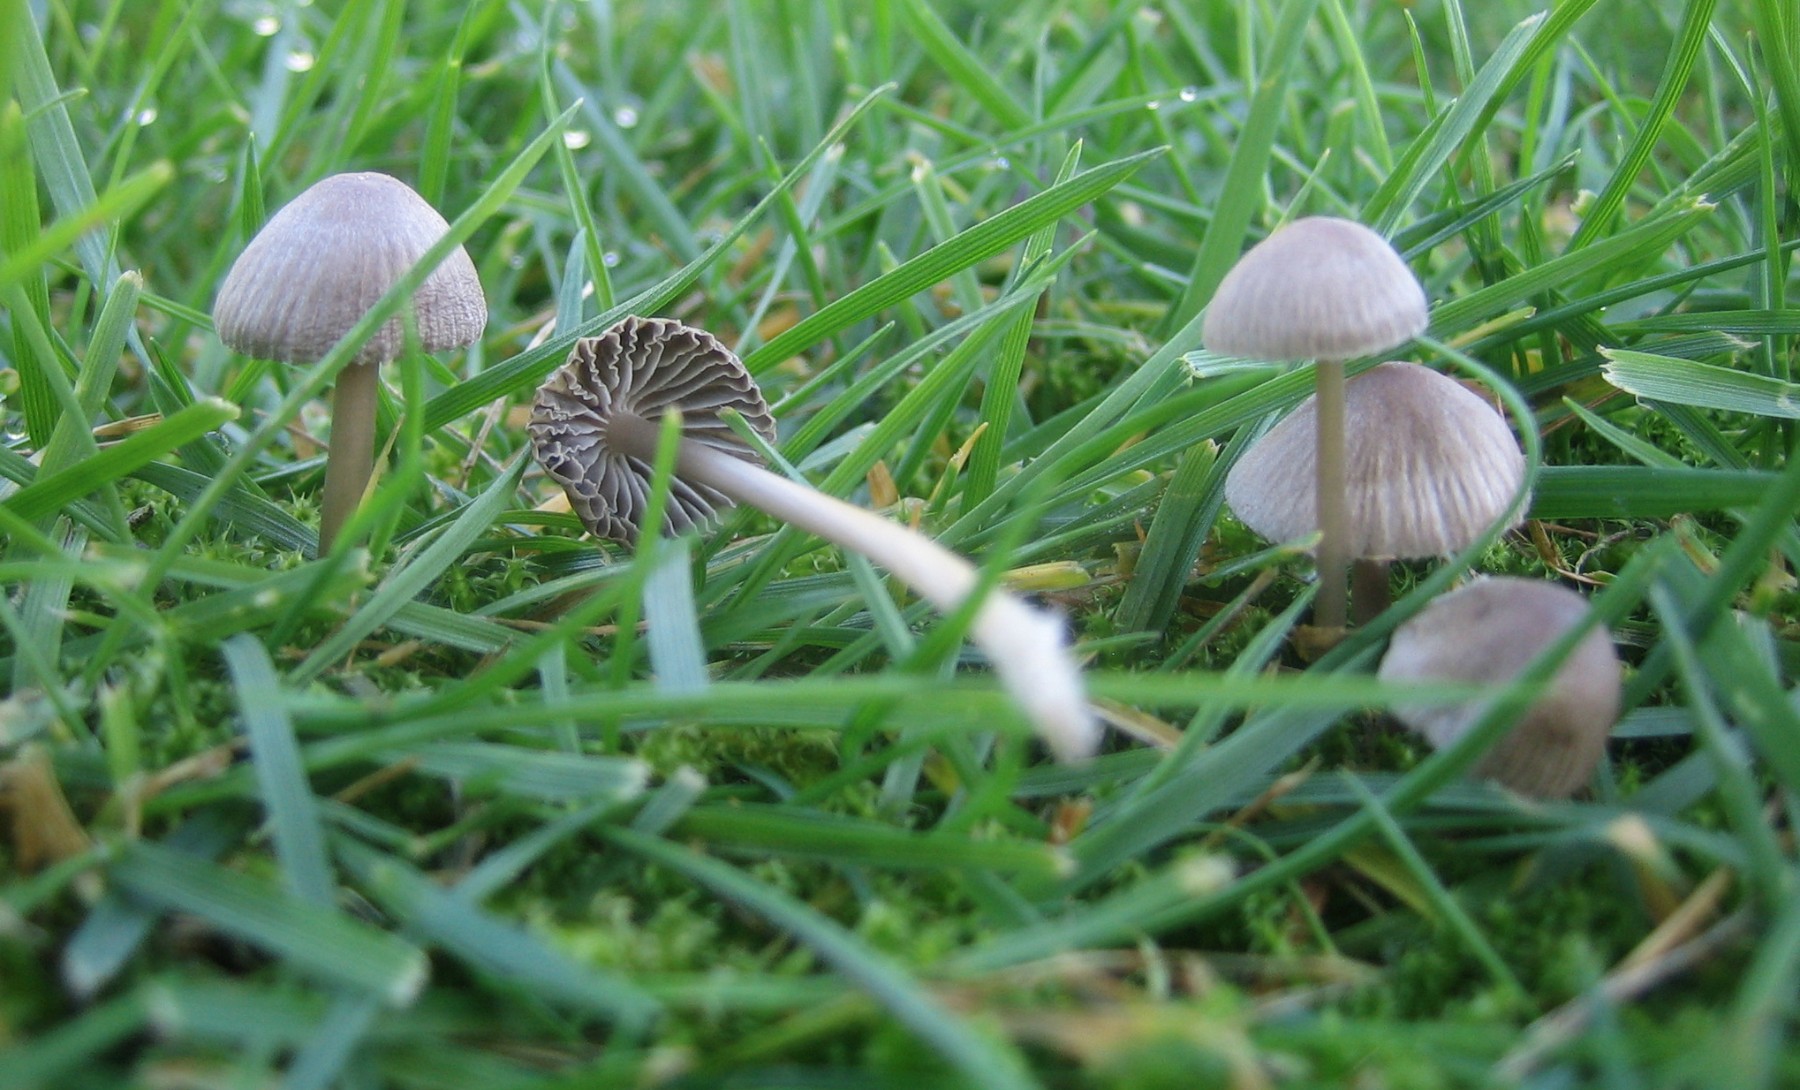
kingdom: Fungi
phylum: Basidiomycota
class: Agaricomycetes
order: Agaricales
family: Mycenaceae
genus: Mycena
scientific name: Mycena aetites
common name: plæne-huesvamp
